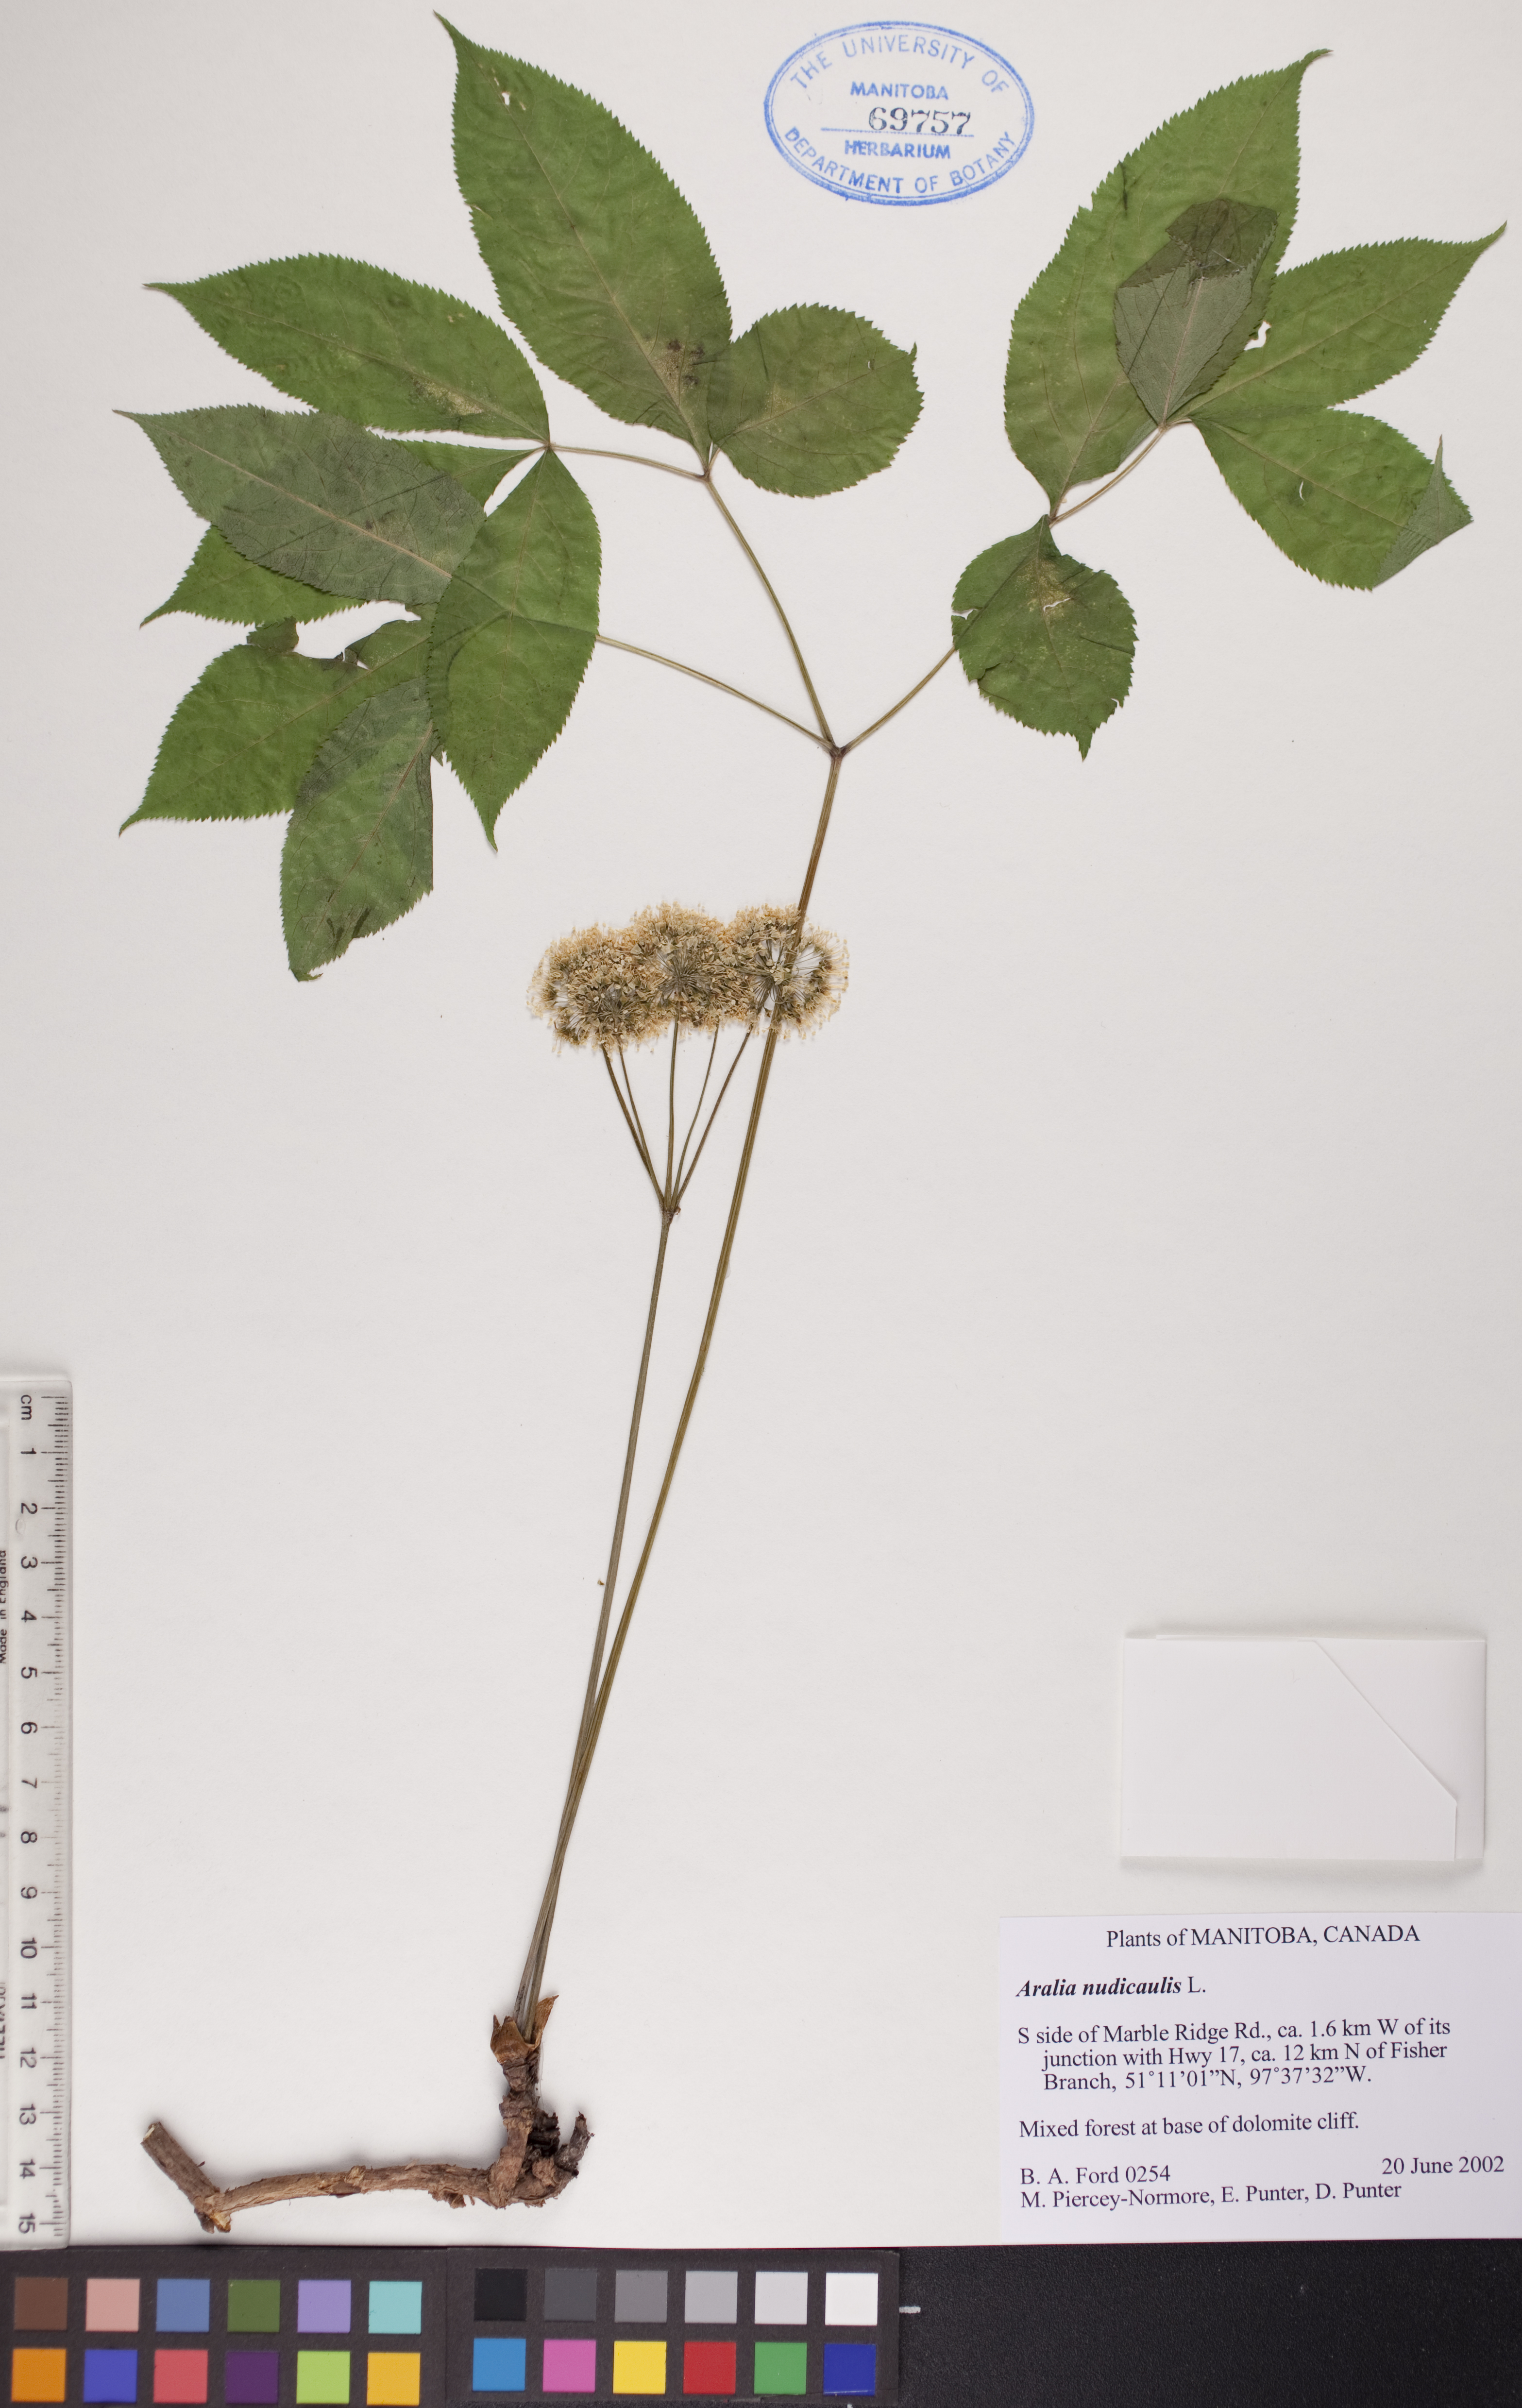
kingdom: Plantae
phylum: Tracheophyta
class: Magnoliopsida
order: Apiales
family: Araliaceae
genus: Aralia
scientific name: Aralia nudicaulis
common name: Wild sarsaparilla
